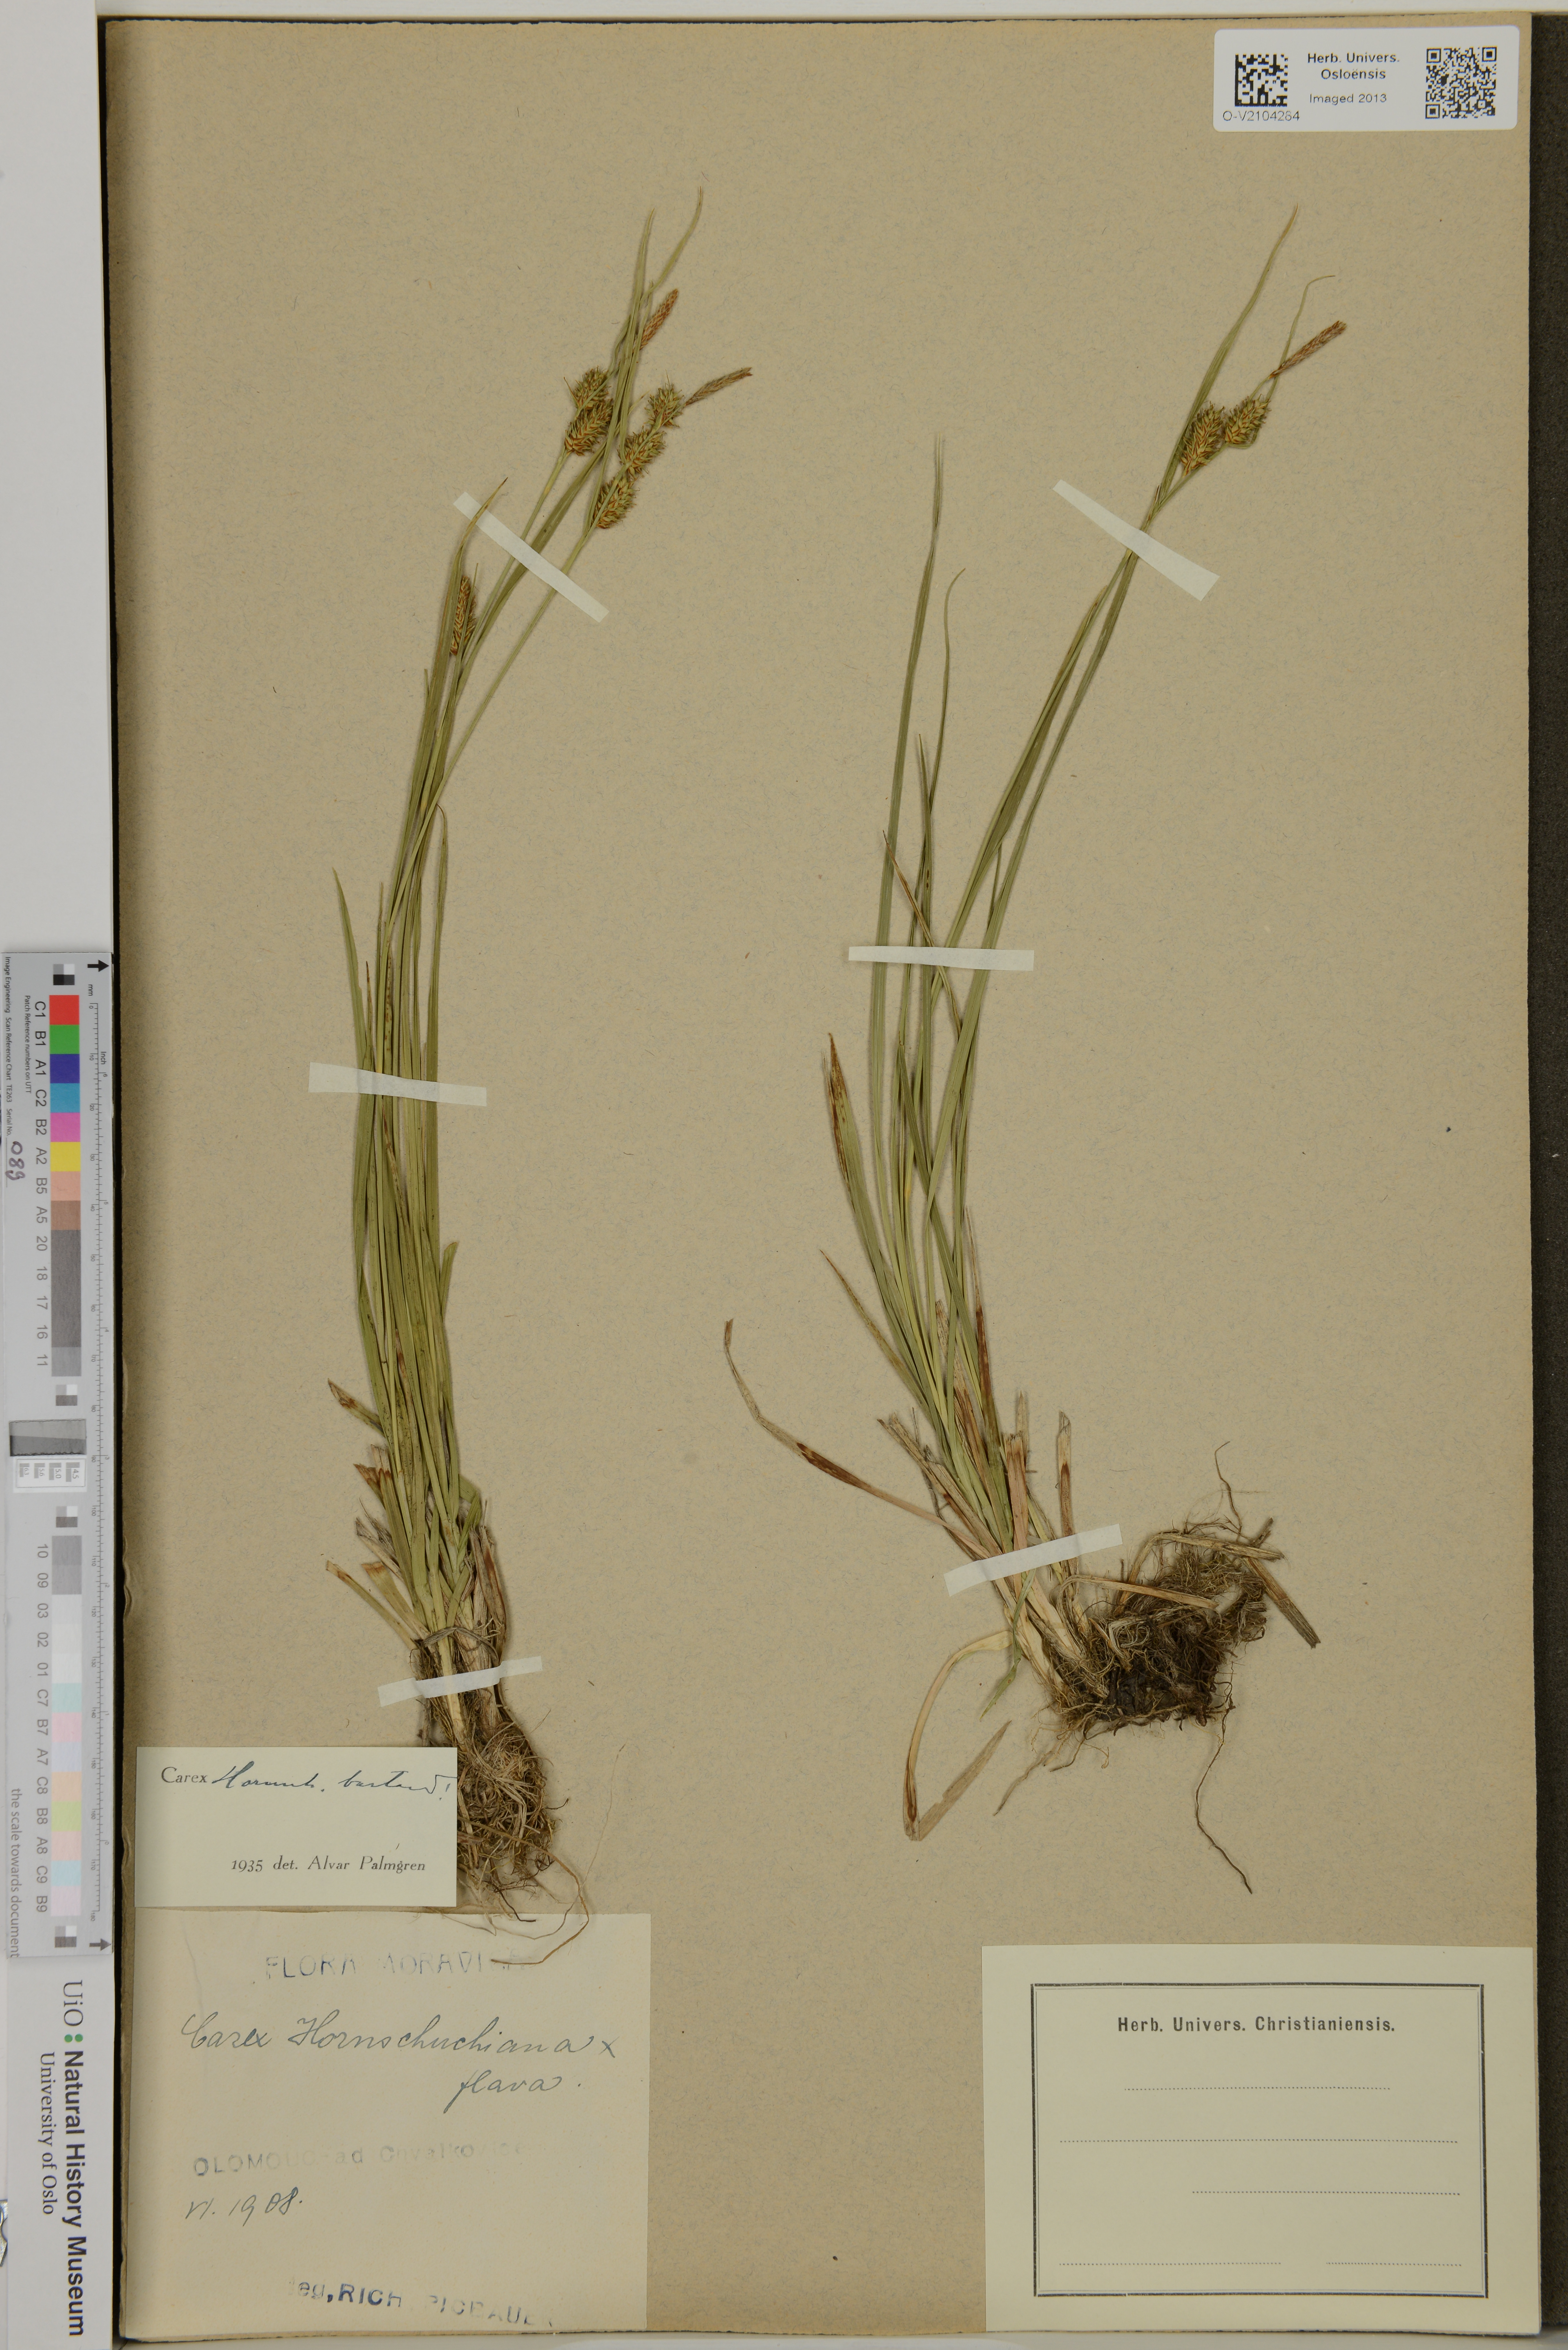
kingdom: Plantae
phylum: Tracheophyta
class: Liliopsida
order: Poales
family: Cyperaceae
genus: Carex
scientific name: Carex hostiana
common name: Tawny sedge
